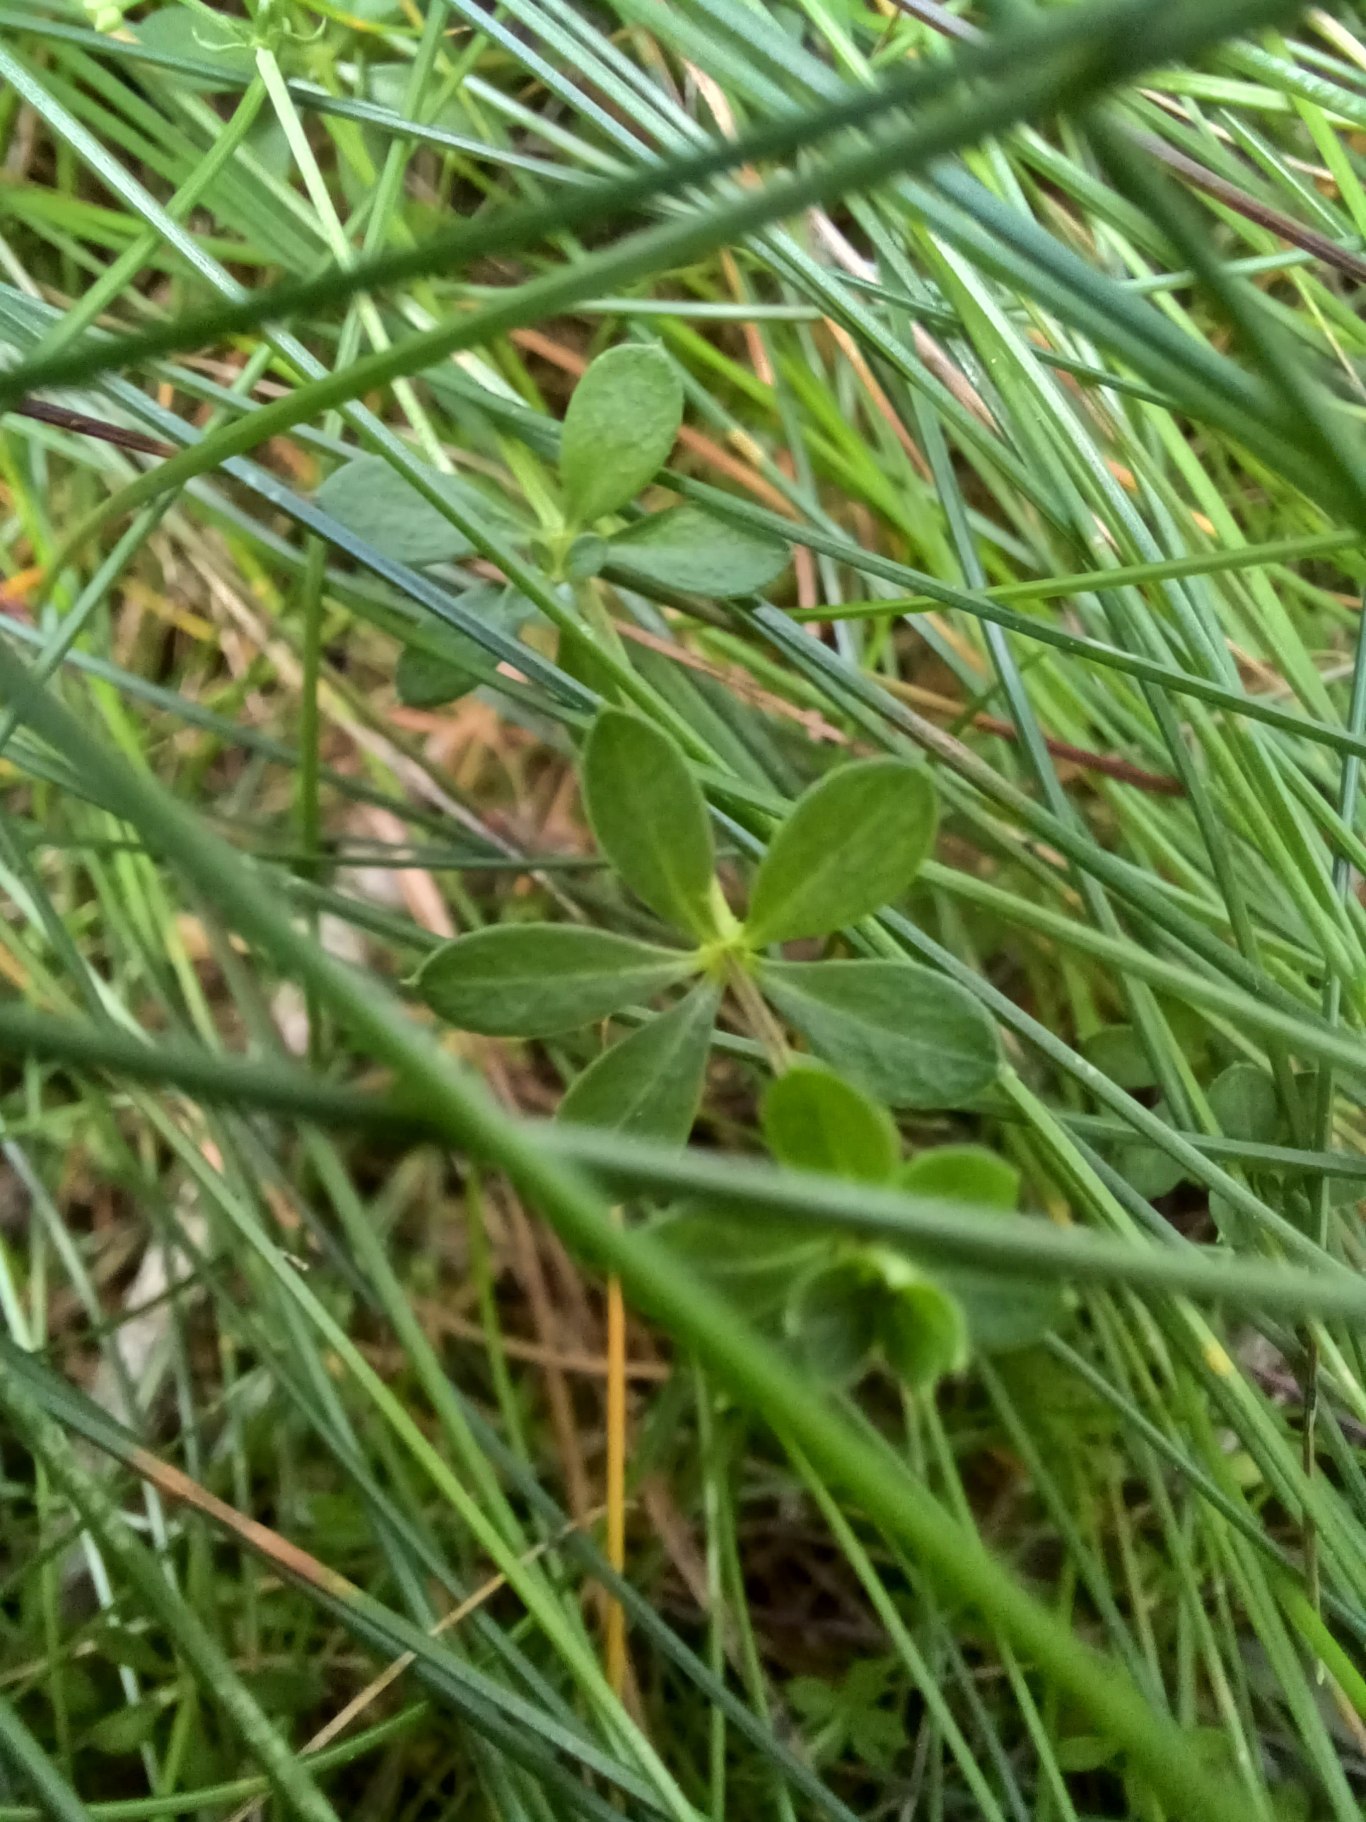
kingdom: Plantae
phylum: Tracheophyta
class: Magnoliopsida
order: Gentianales
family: Rubiaceae
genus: Galium
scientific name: Galium saxatile
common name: Lyng-snerre
